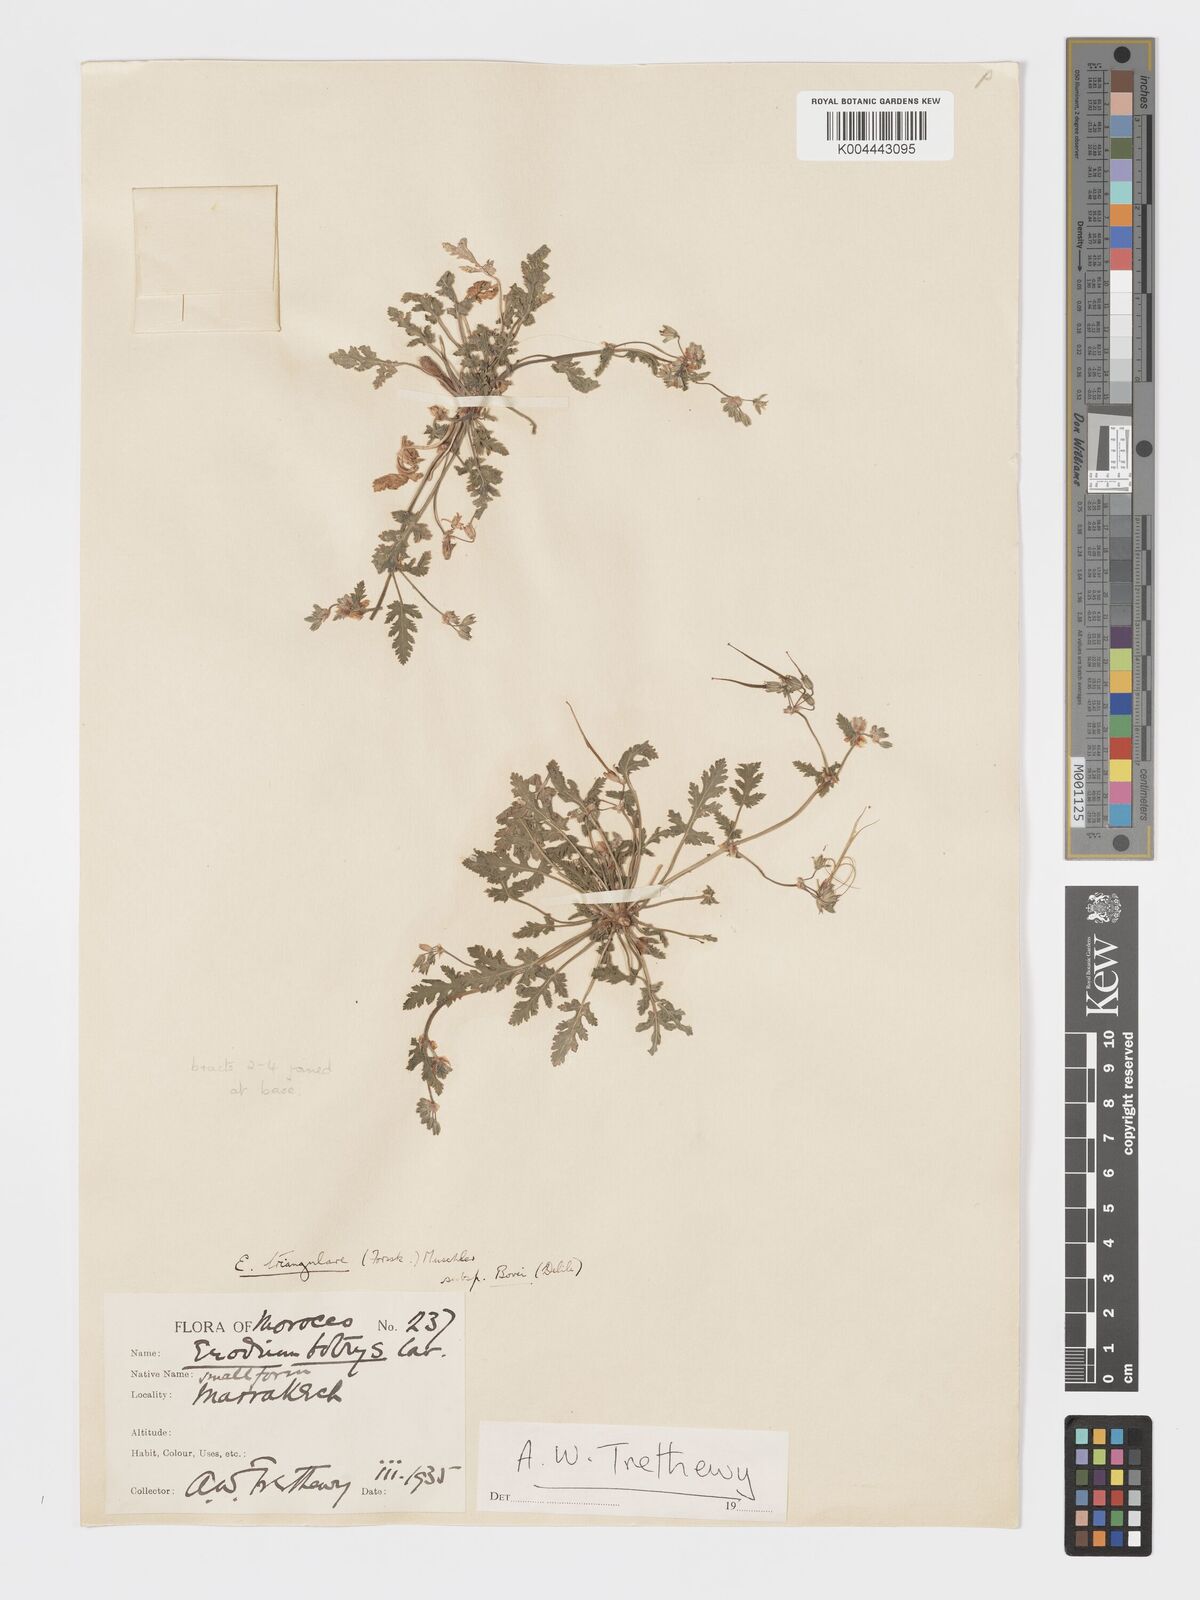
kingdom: Plantae
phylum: Tracheophyta
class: Magnoliopsida
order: Geraniales
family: Geraniaceae
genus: Erodium
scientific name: Erodium laciniatum
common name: Cutleaf stork's bill
